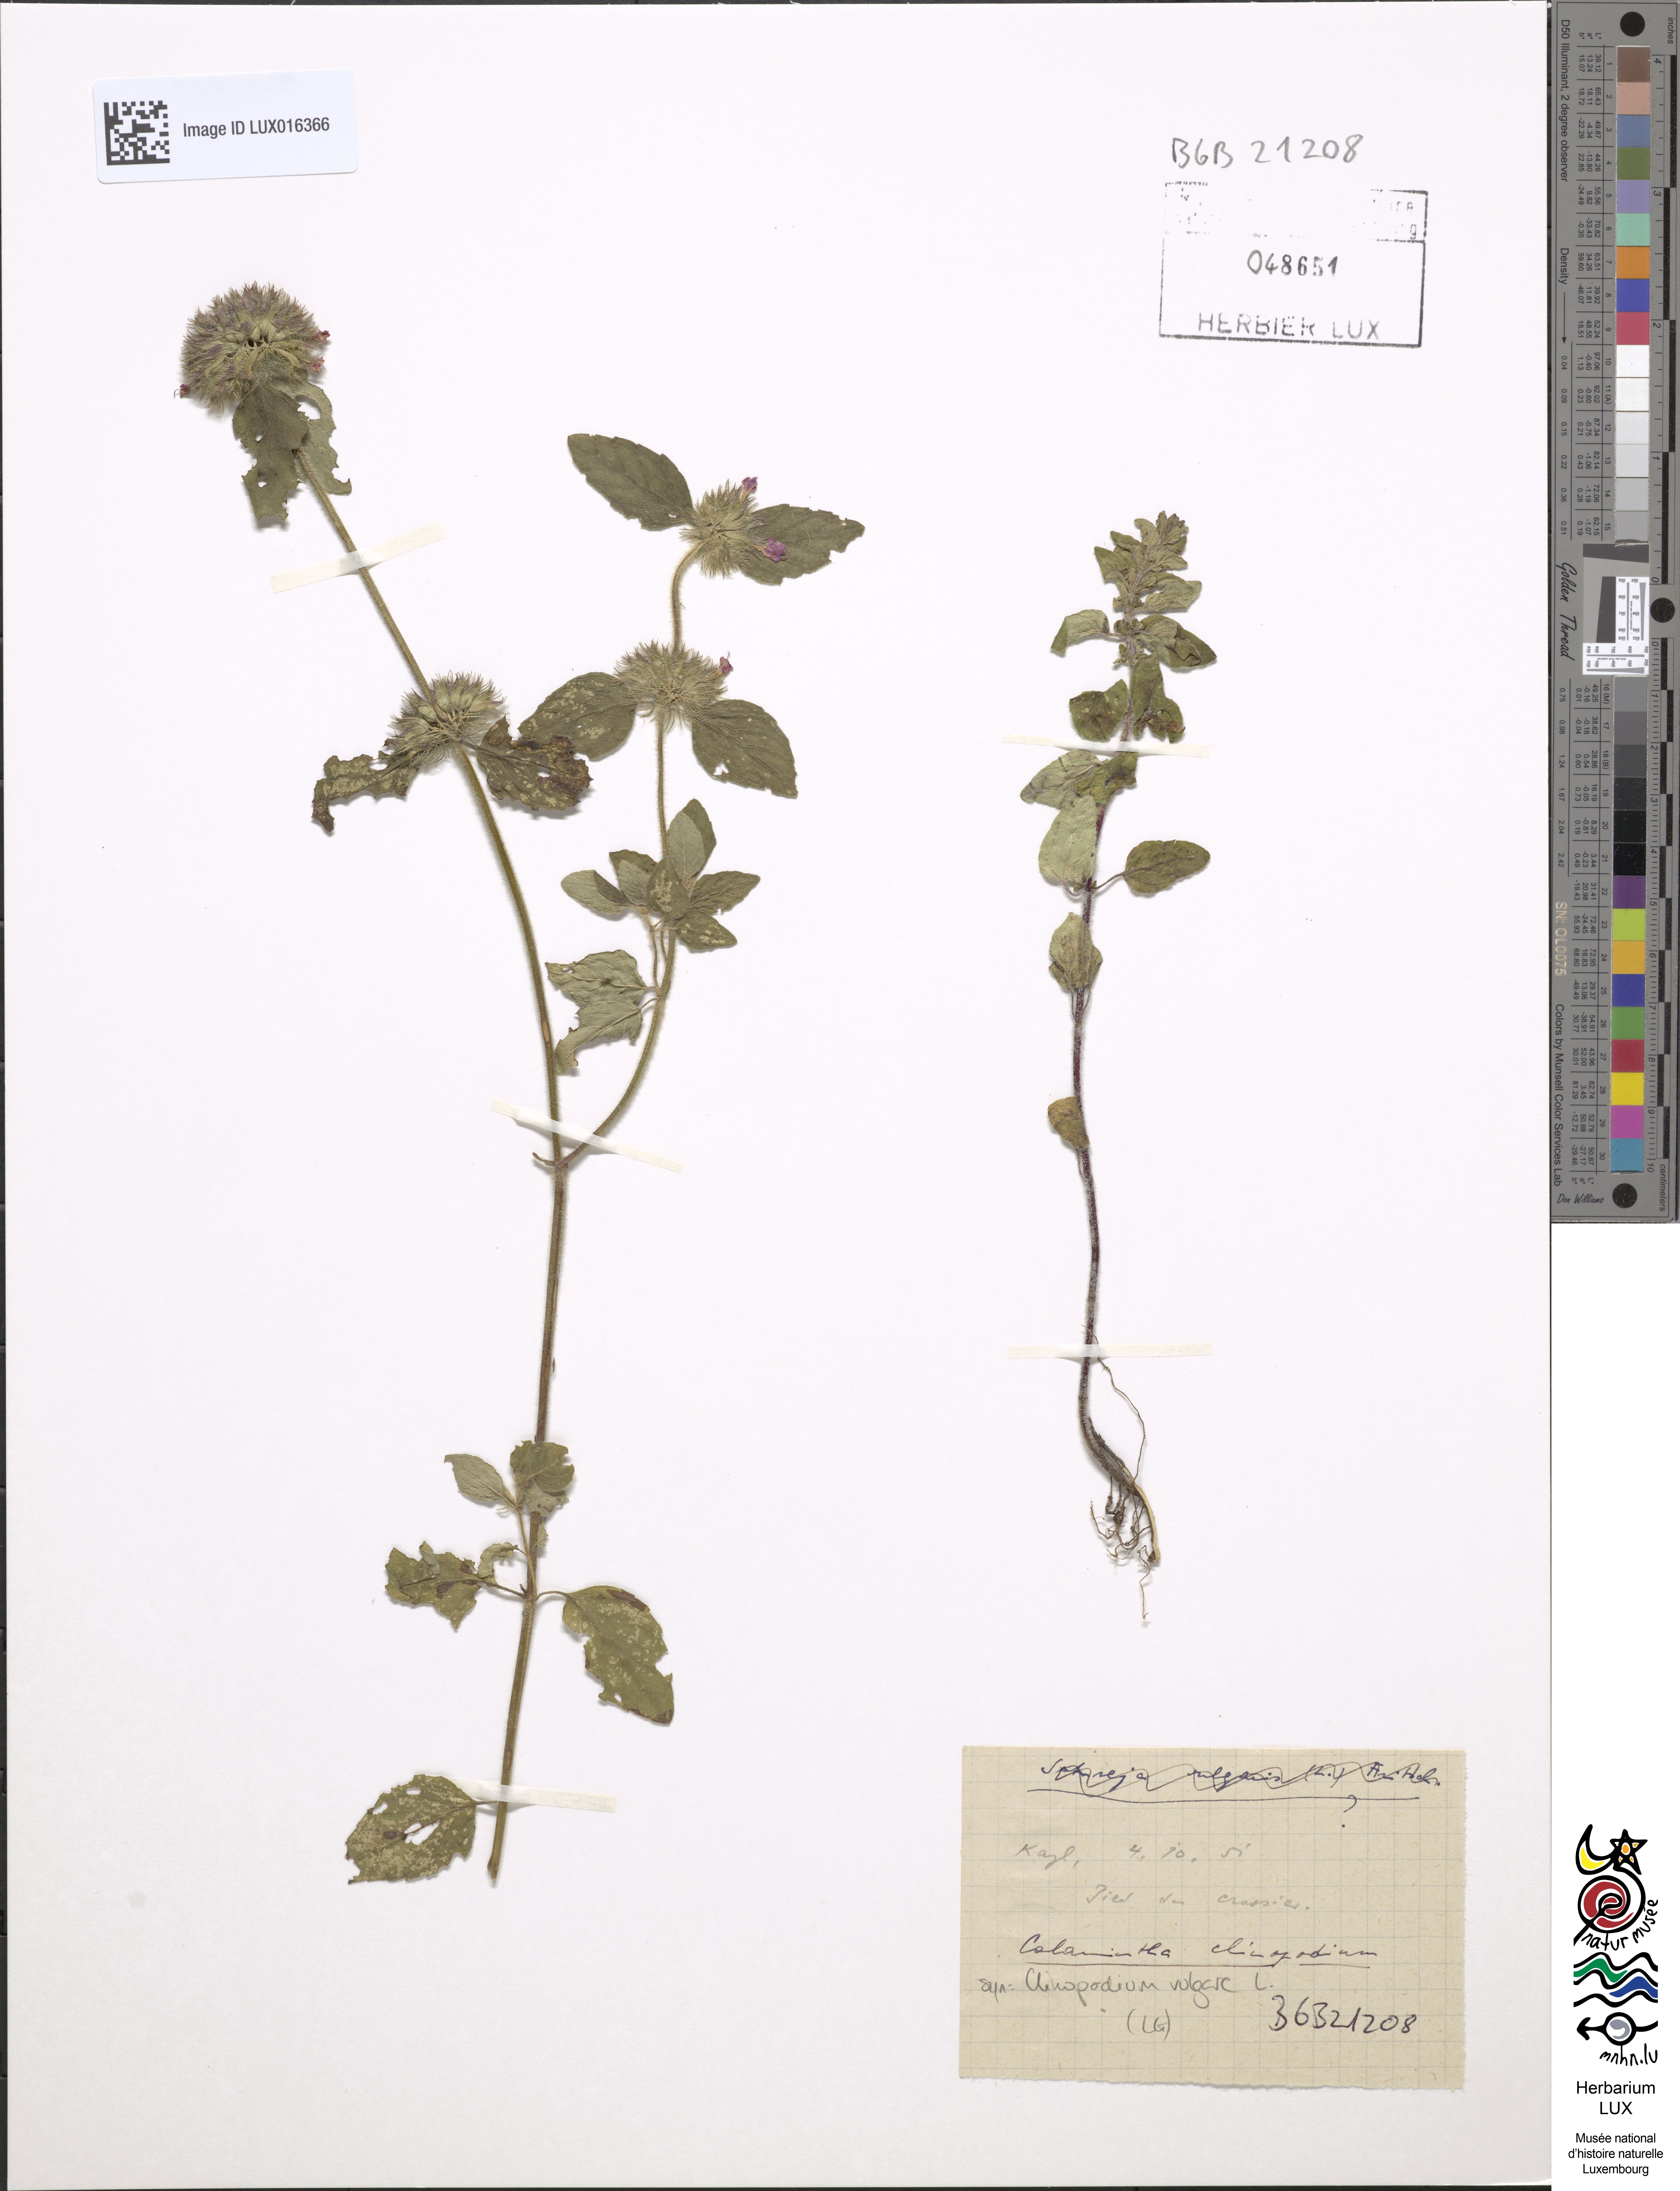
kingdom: Plantae
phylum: Tracheophyta
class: Magnoliopsida
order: Lamiales
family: Lamiaceae
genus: Clinopodium
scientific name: Clinopodium vulgare
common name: Wild basil
